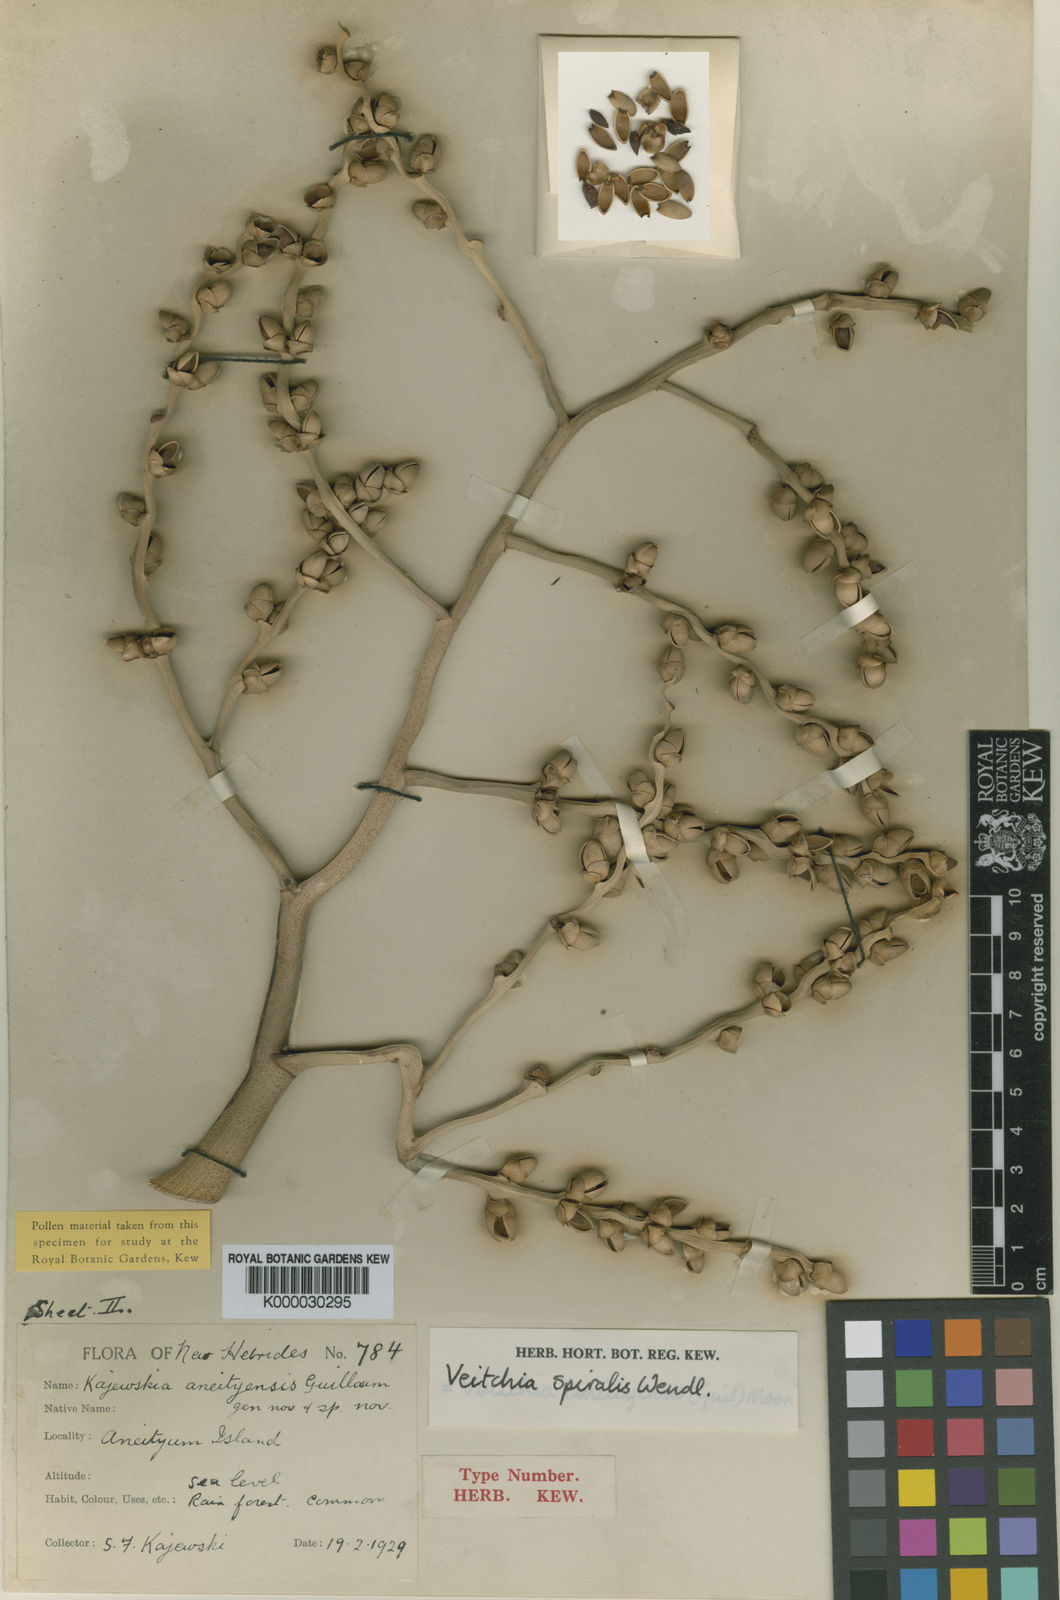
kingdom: Plantae
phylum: Tracheophyta
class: Liliopsida
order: Arecales
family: Arecaceae
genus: Veitchia
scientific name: Veitchia spiralis
